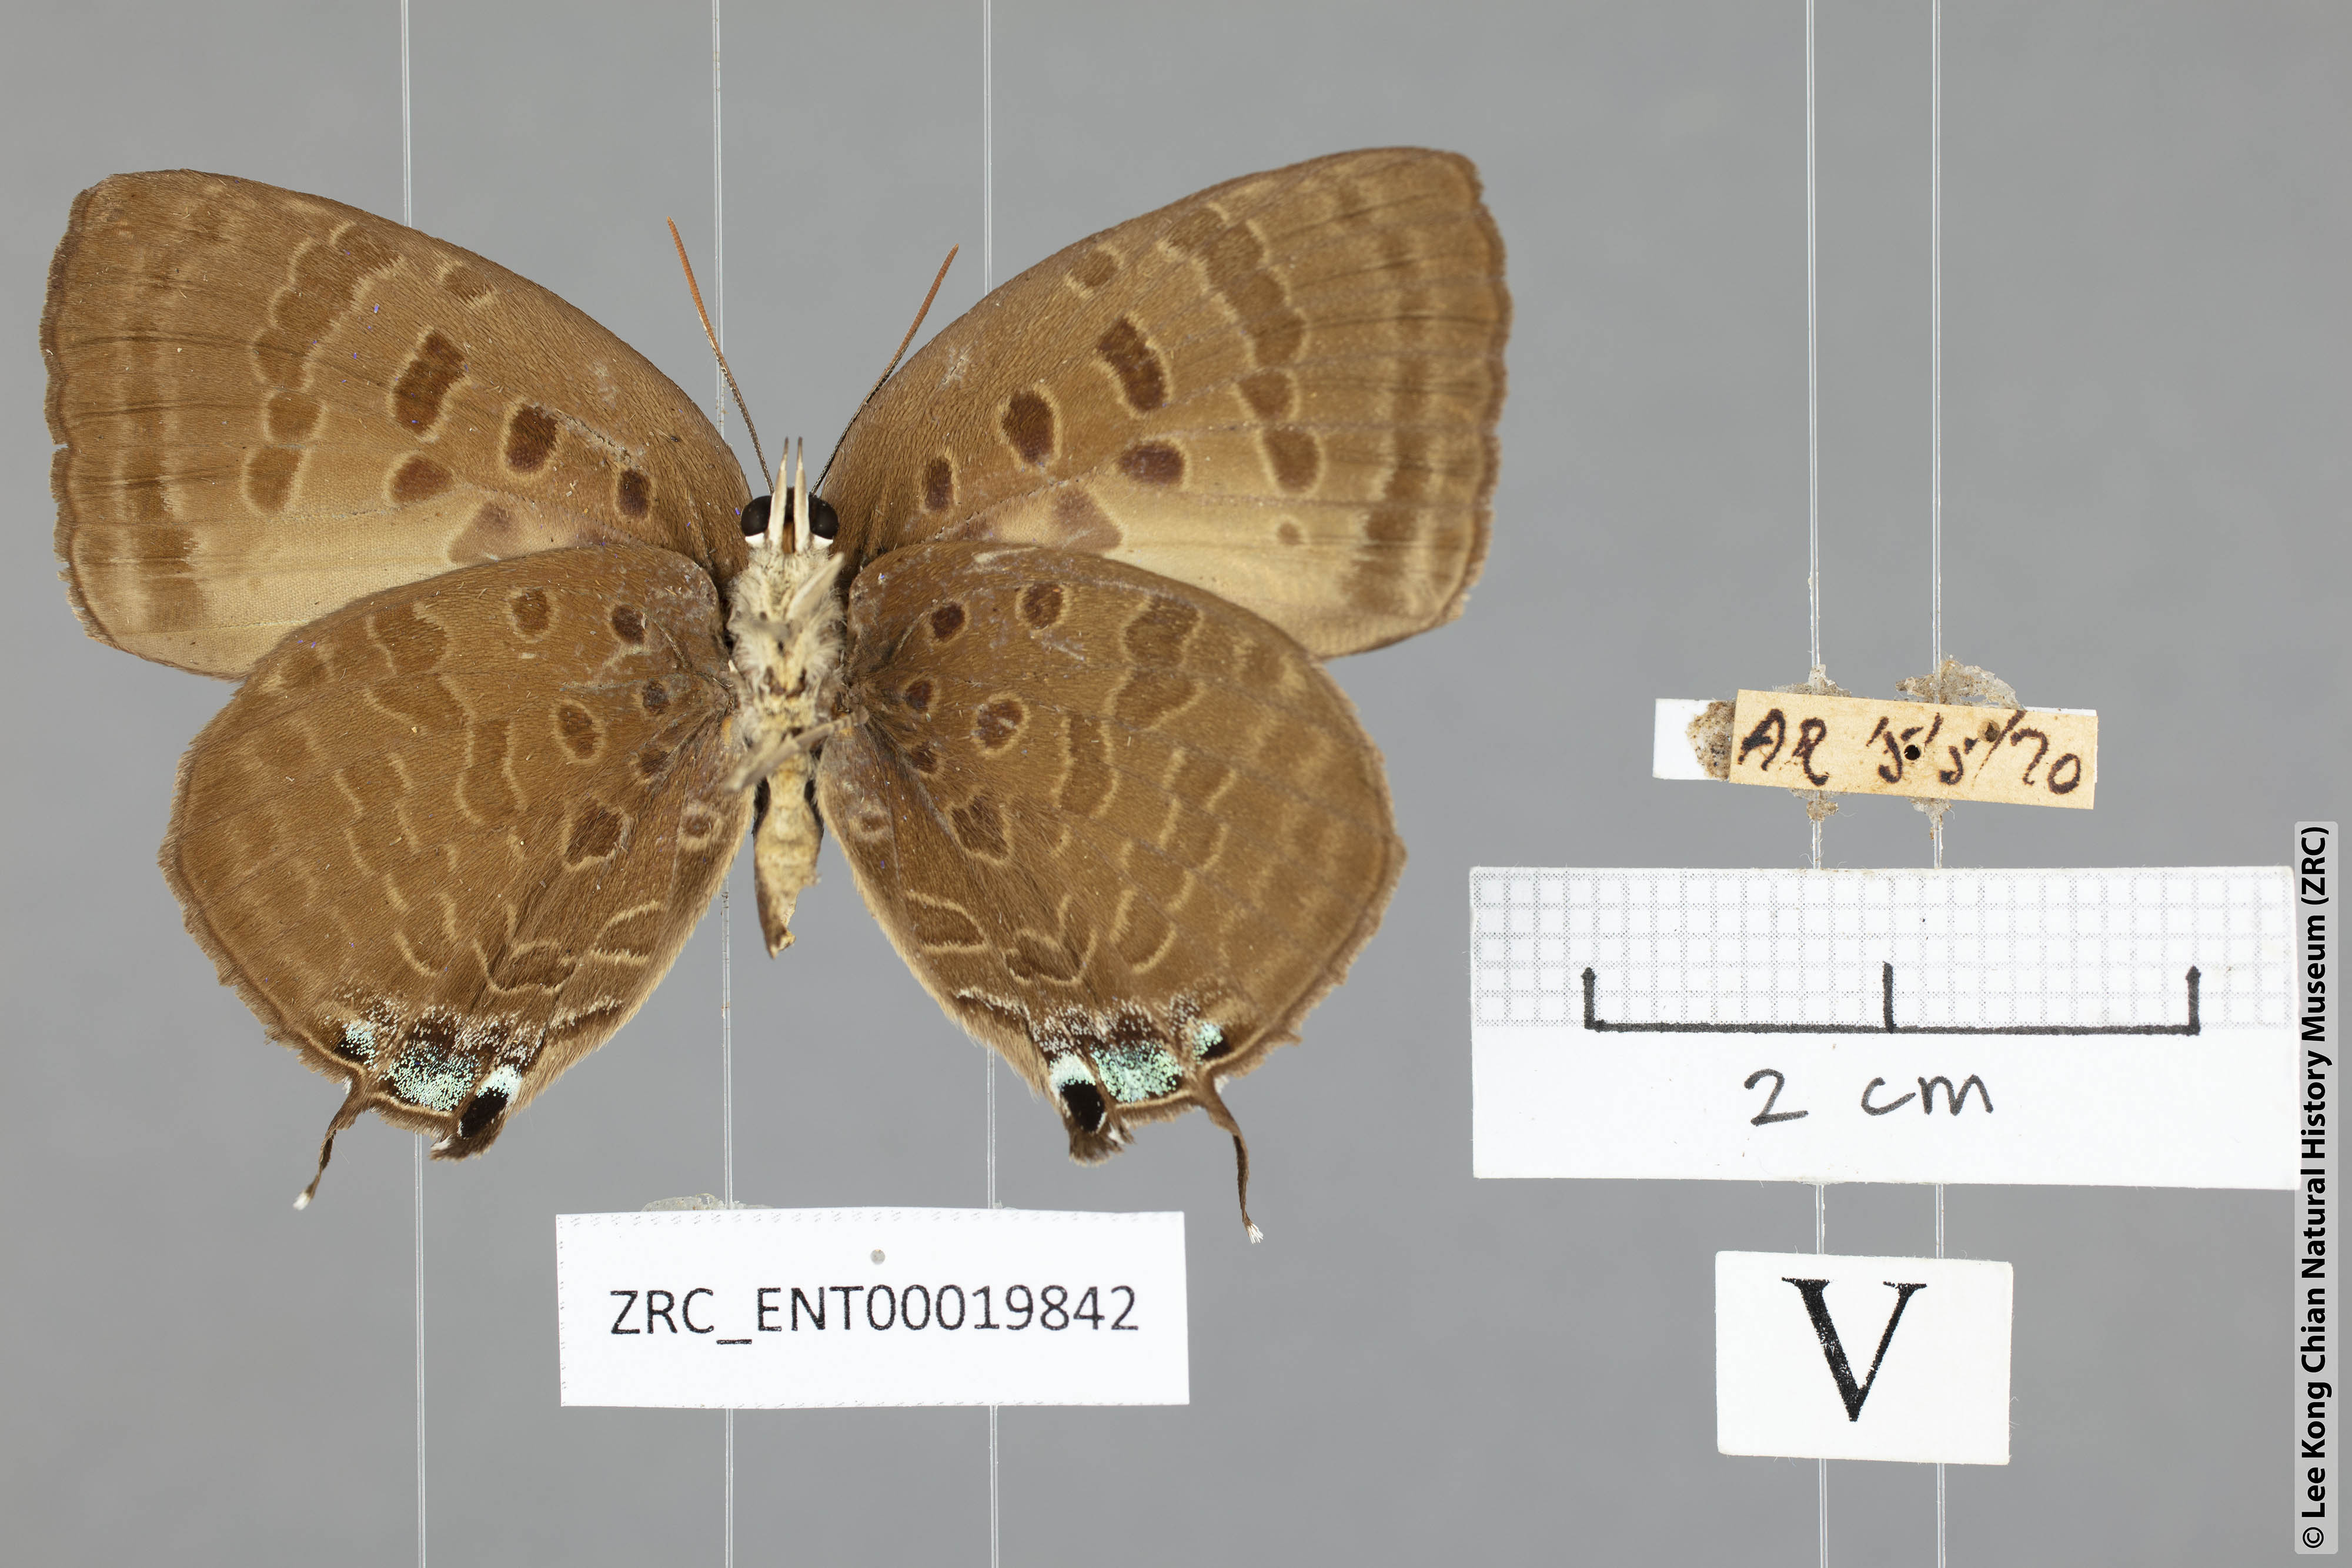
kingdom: Animalia
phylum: Arthropoda
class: Insecta
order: Lepidoptera
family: Lycaenidae
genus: Arhopala
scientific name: Arhopala
